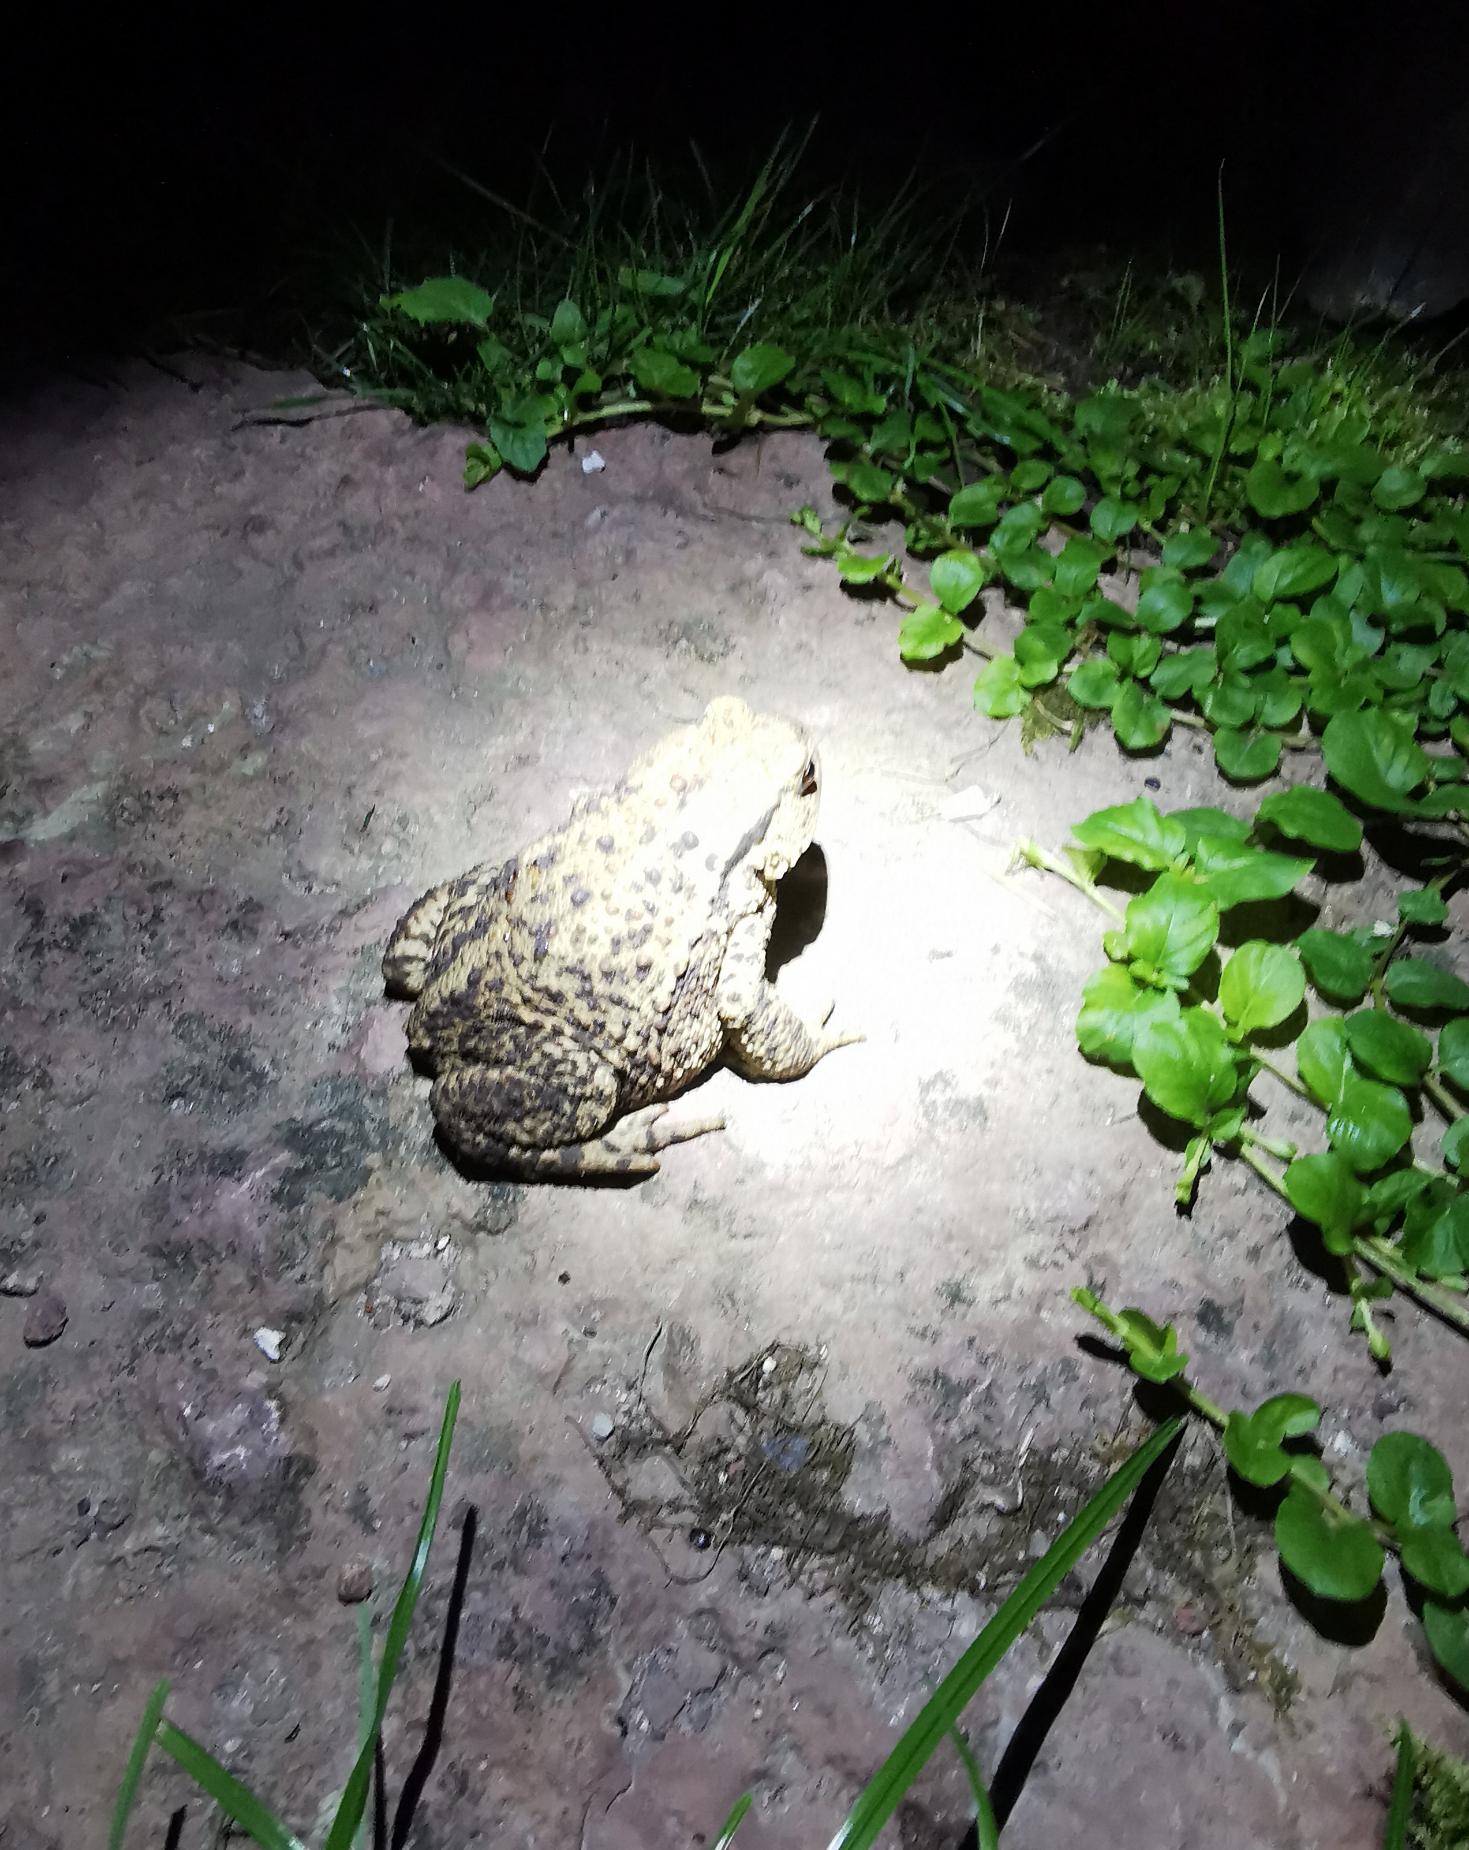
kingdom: Animalia
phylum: Chordata
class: Amphibia
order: Anura
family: Bufonidae
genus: Bufo
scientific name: Bufo bufo
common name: Skrubtudse
